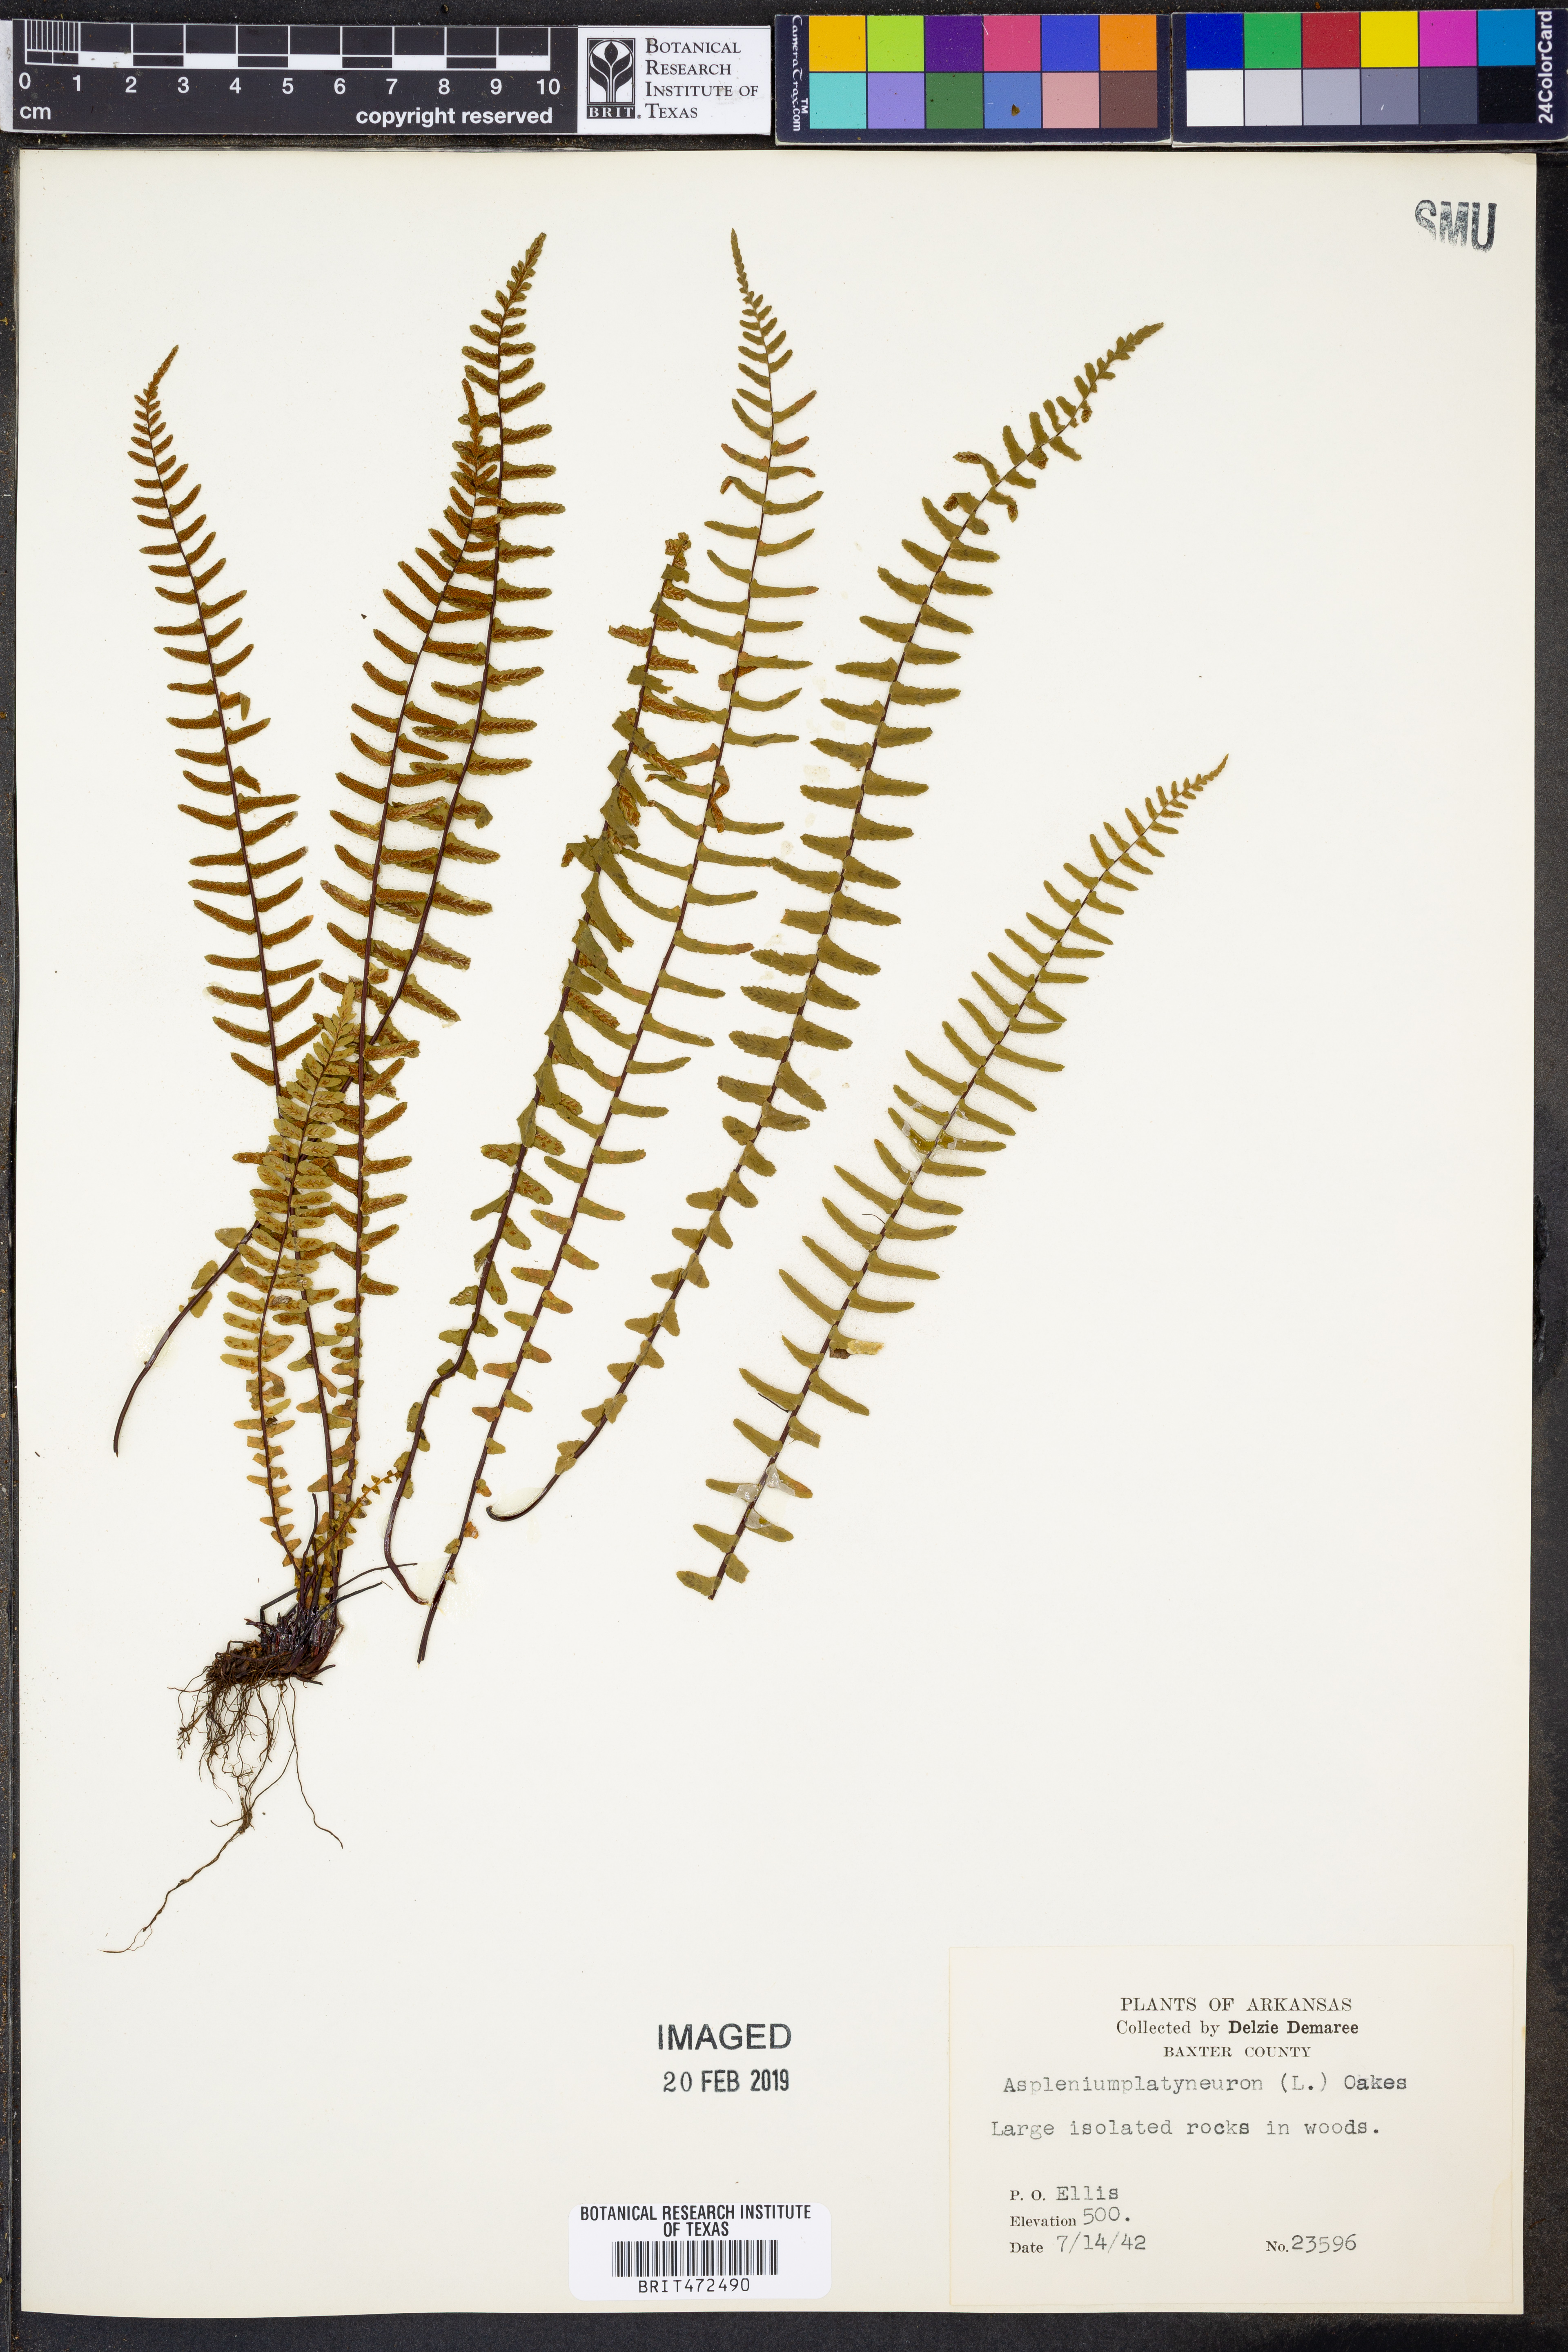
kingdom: Plantae
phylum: Tracheophyta
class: Polypodiopsida
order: Polypodiales
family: Aspleniaceae
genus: Asplenium
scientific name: Asplenium platyneuron
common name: Ebony spleenwort
